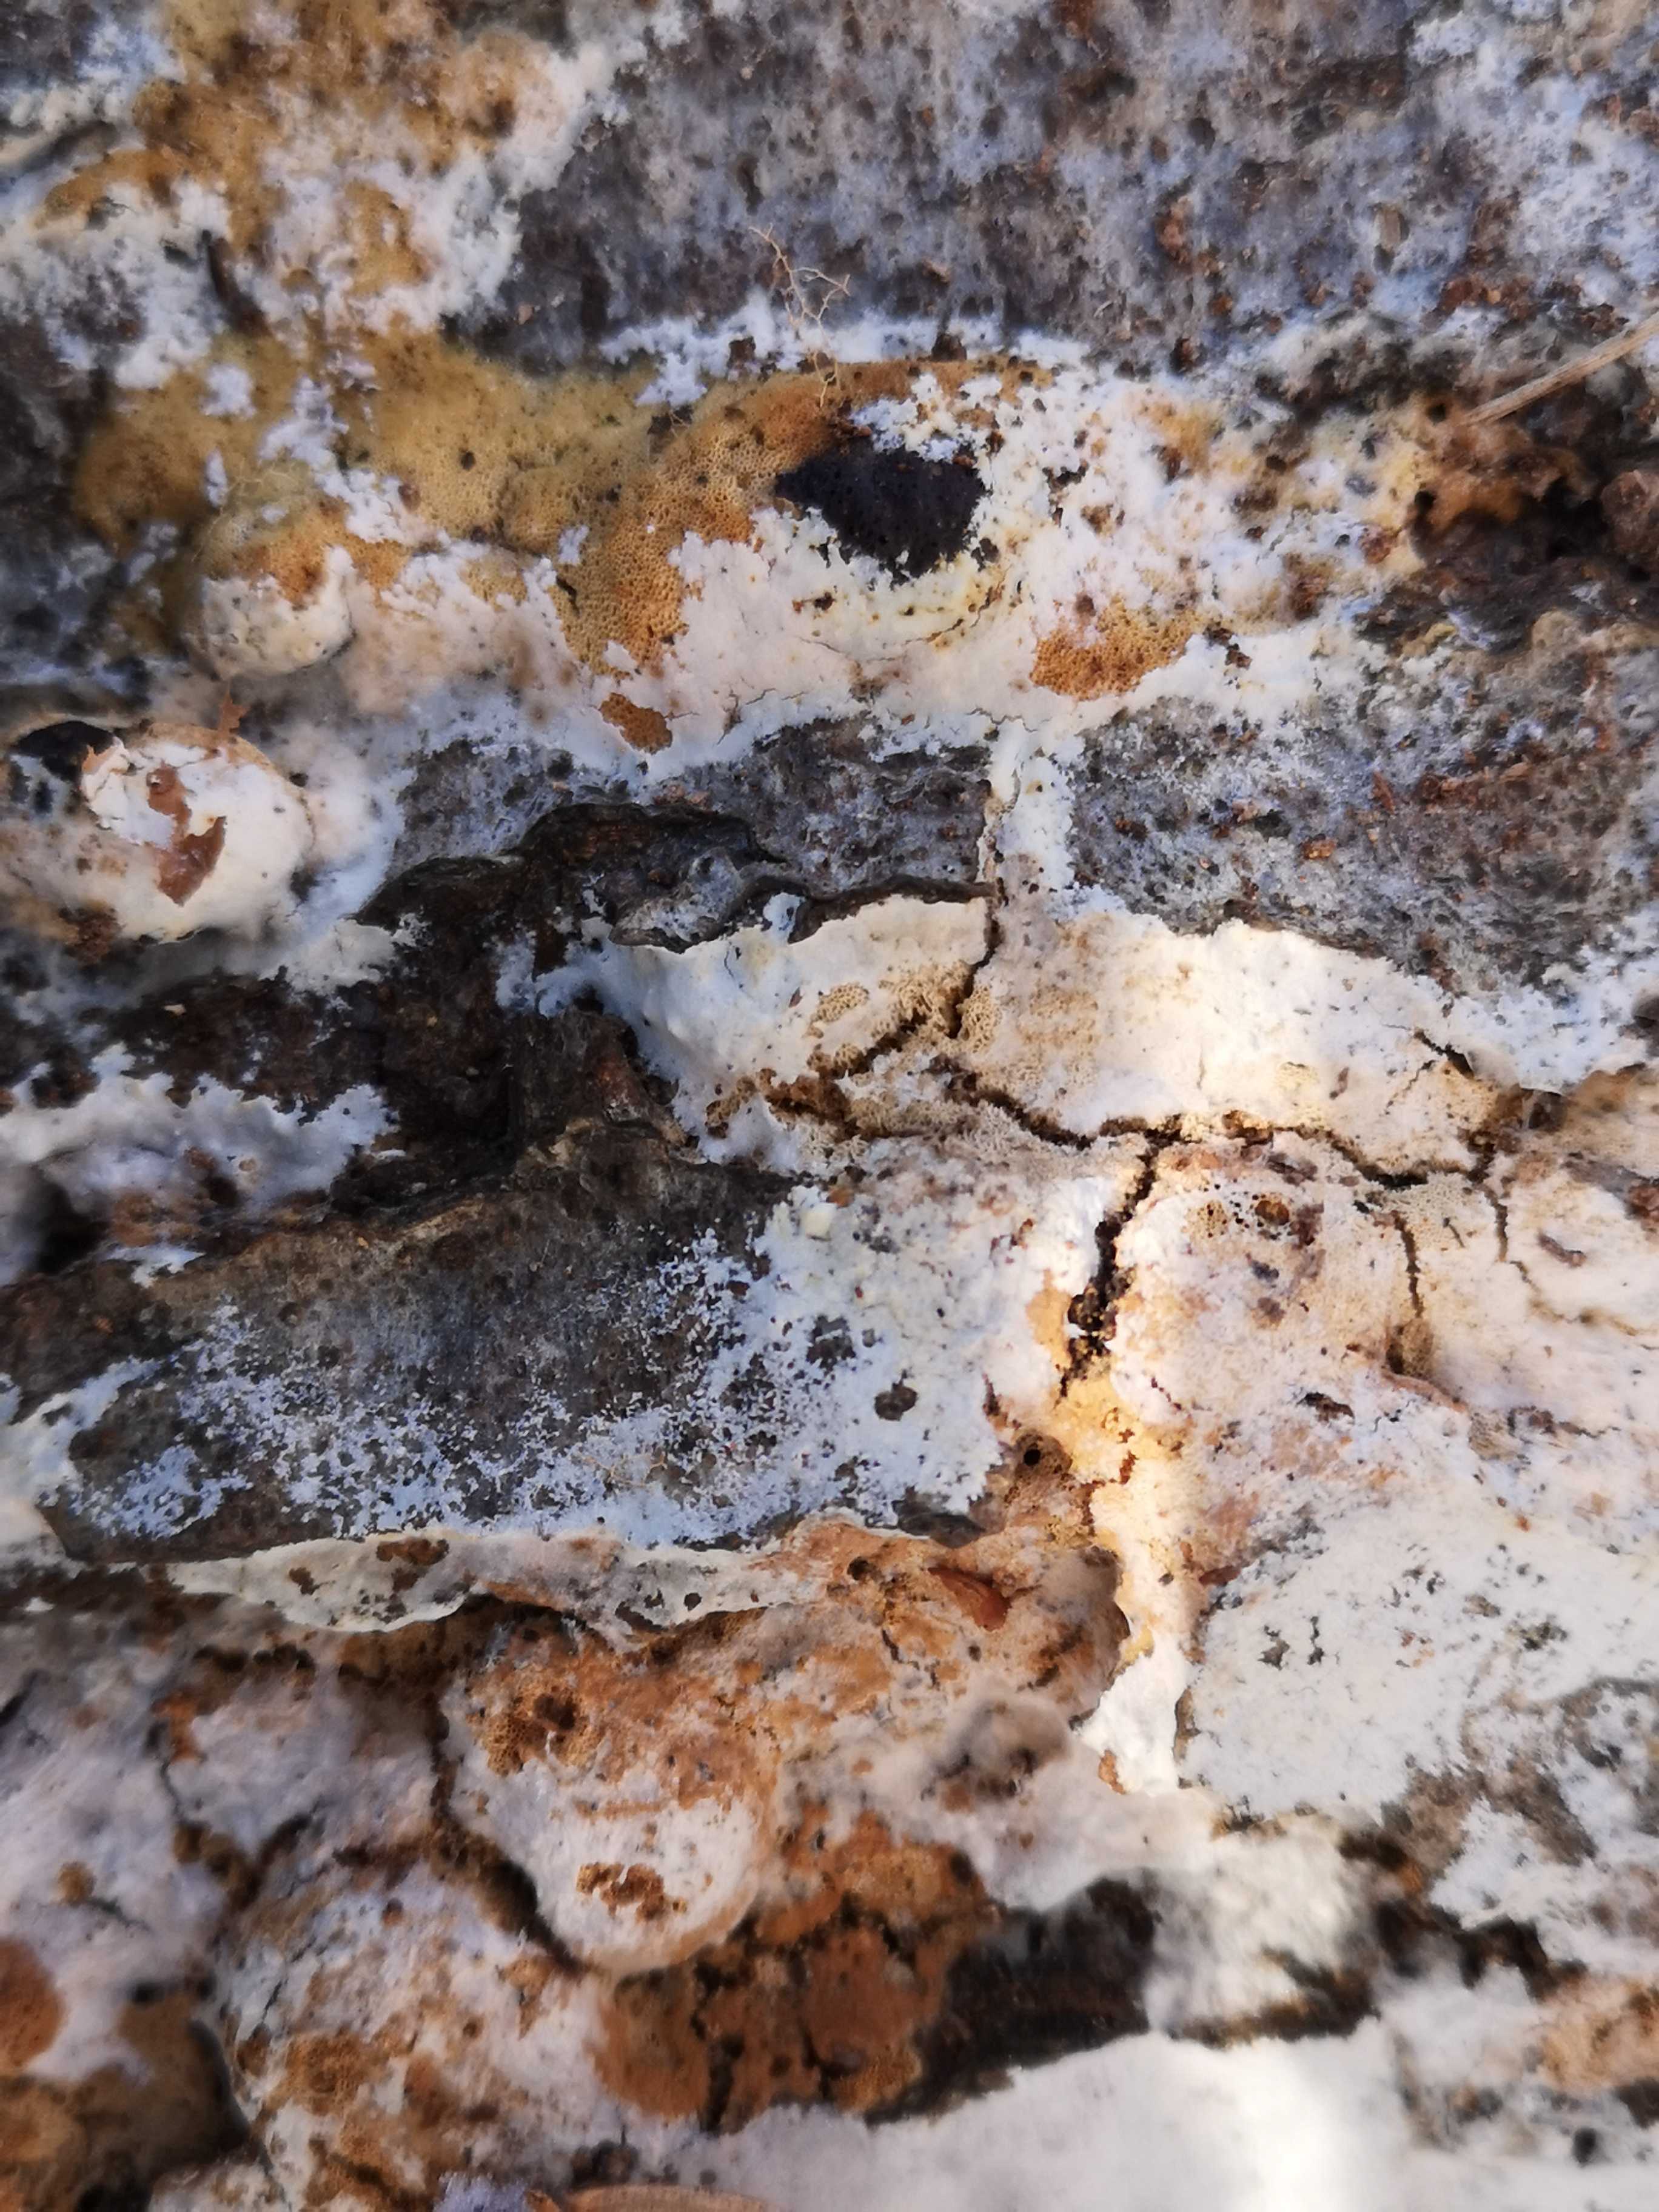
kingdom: Fungi
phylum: Basidiomycota
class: Agaricomycetes
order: Polyporales
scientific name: Polyporales
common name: poresvampordenen
